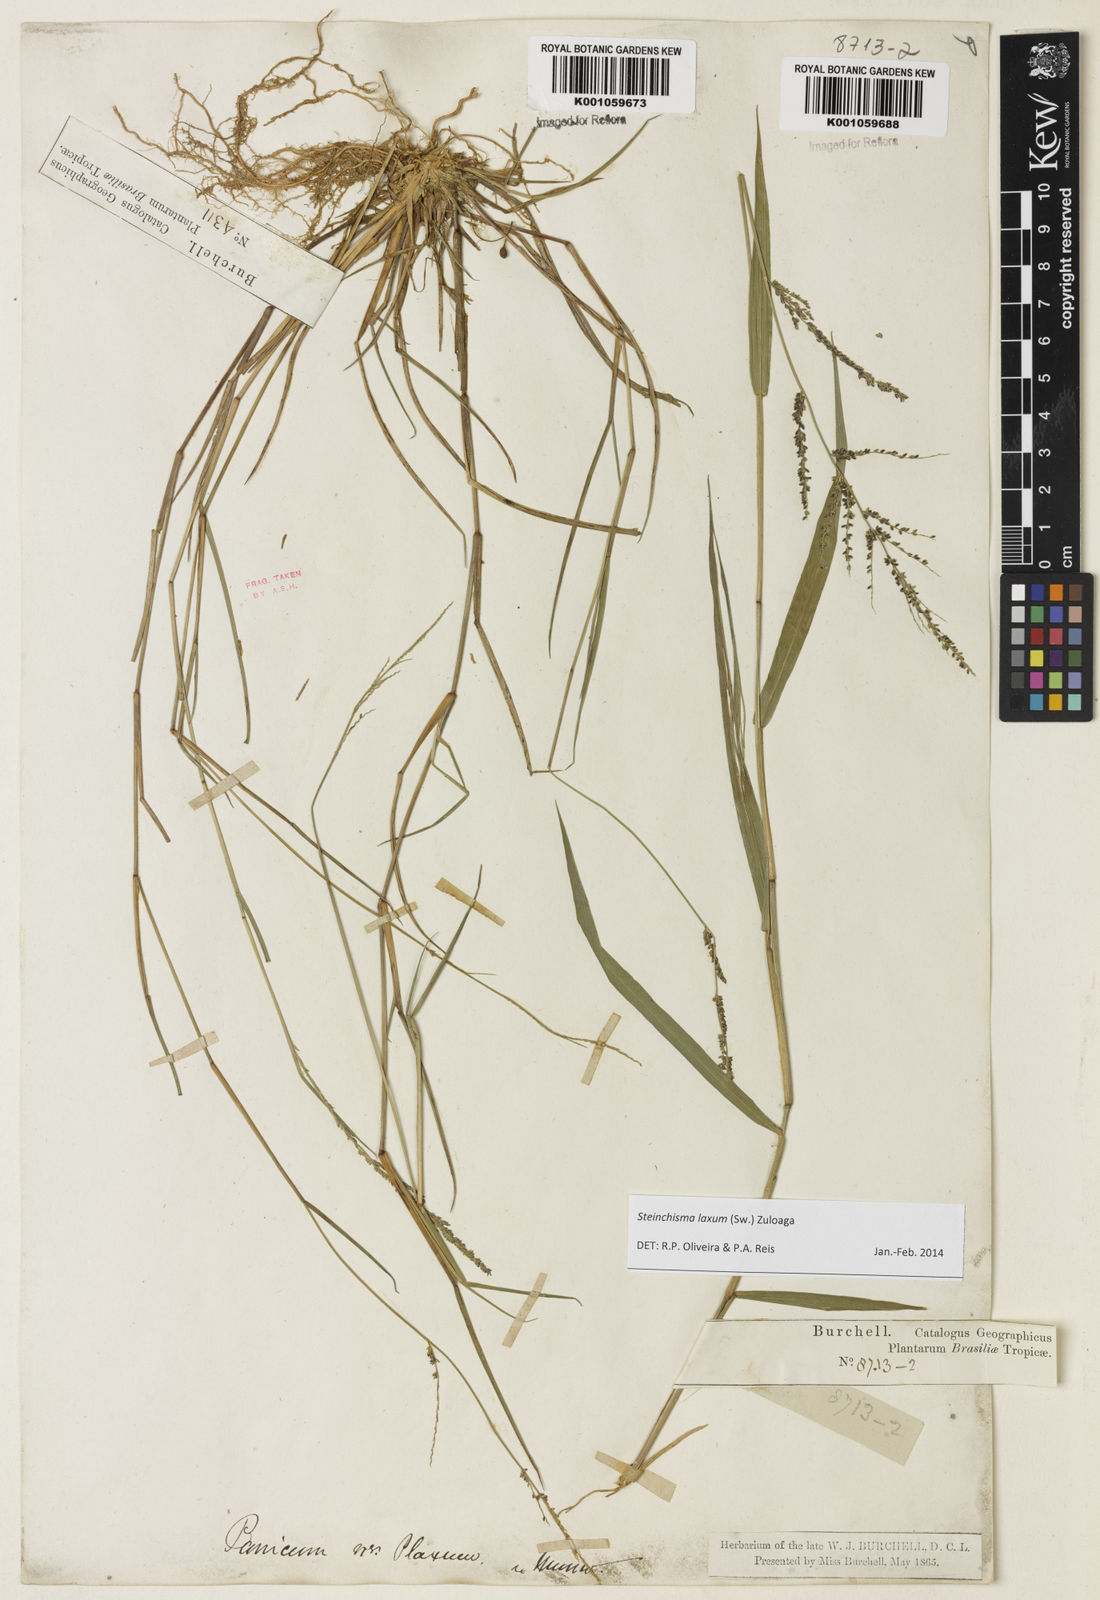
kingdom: Plantae
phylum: Tracheophyta
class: Liliopsida
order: Poales
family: Poaceae
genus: Steinchisma
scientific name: Steinchisma laxum
